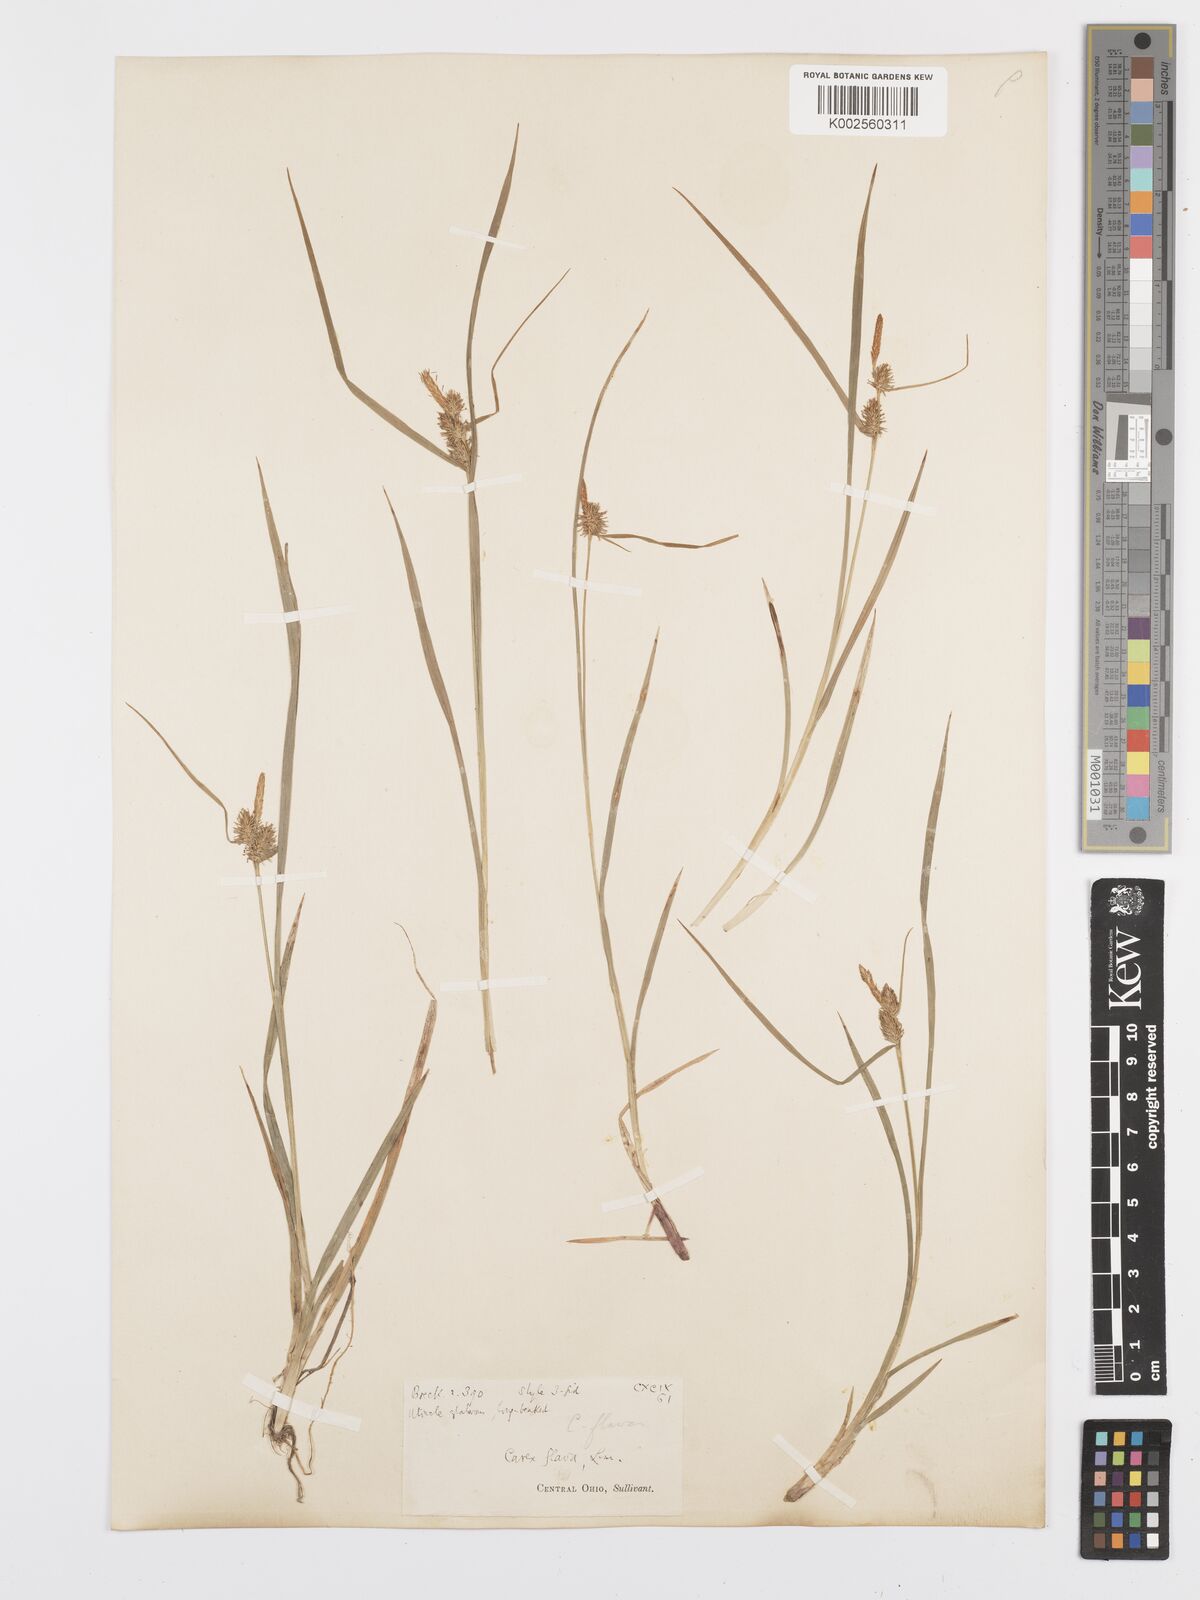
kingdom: Plantae
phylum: Tracheophyta
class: Liliopsida
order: Poales
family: Cyperaceae
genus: Carex
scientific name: Carex flava
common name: Large yellow-sedge
